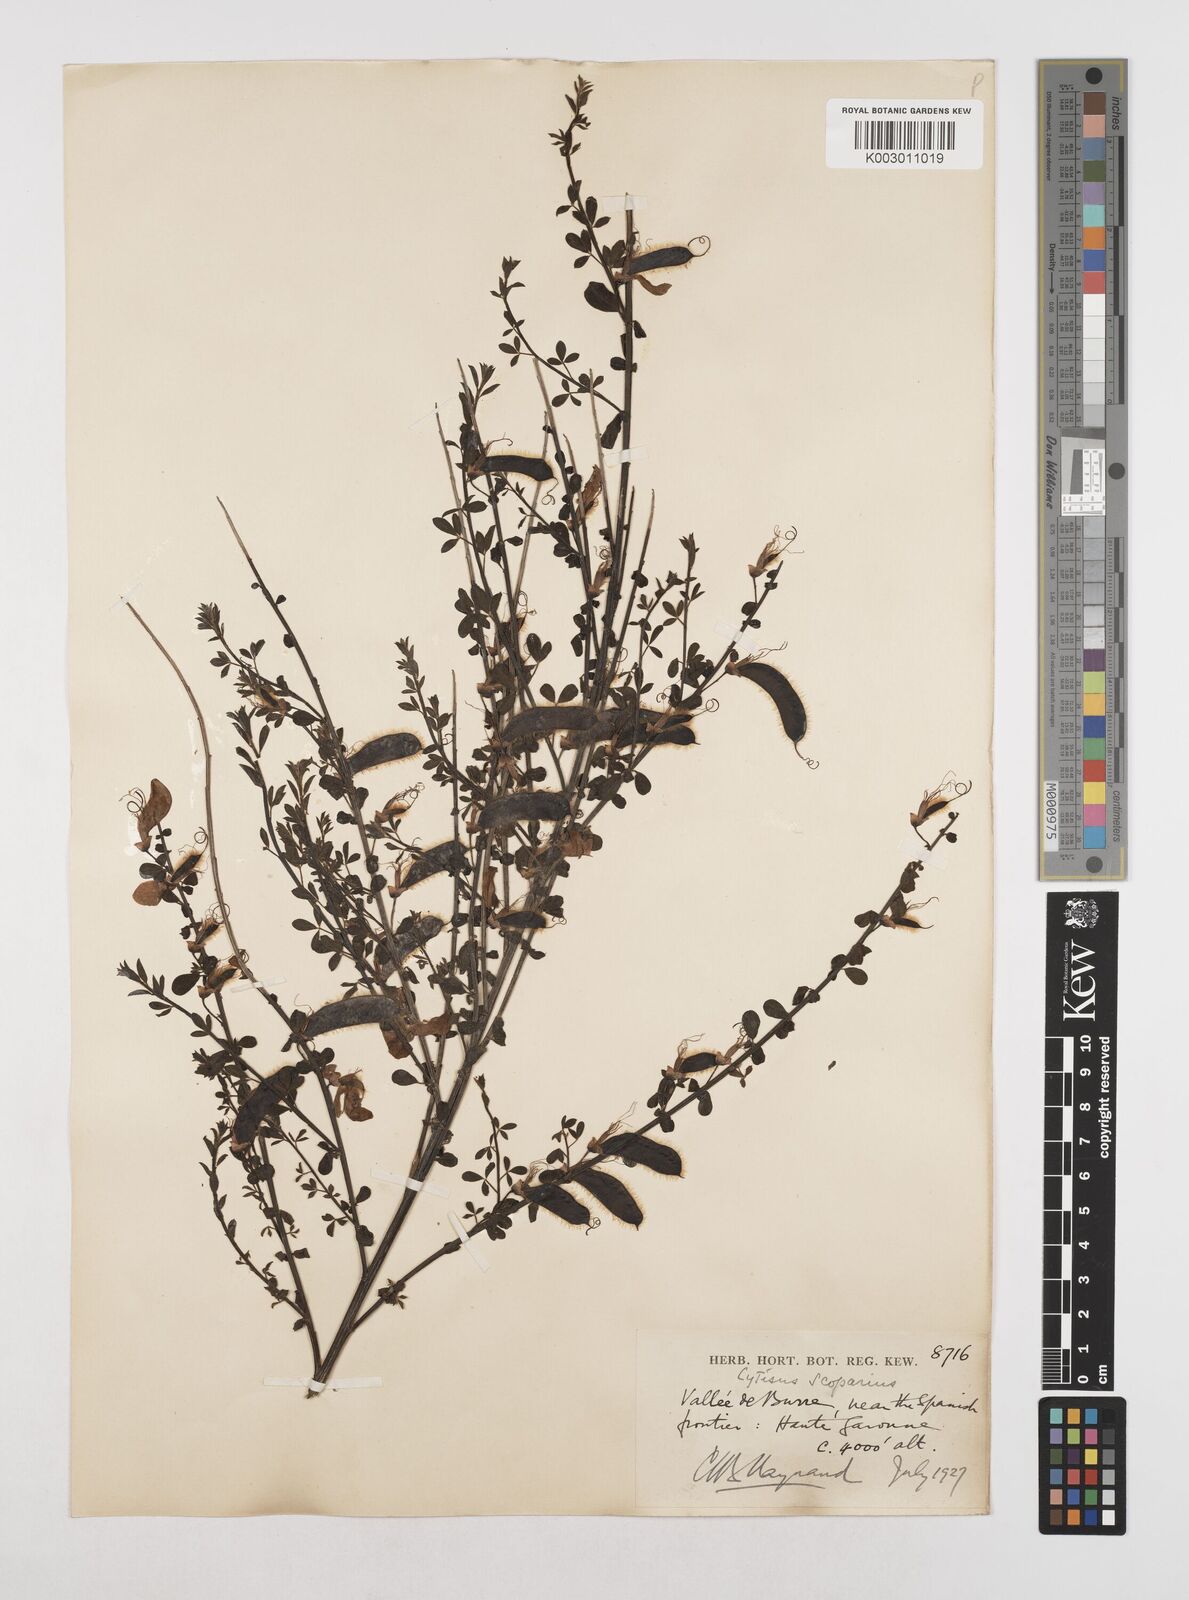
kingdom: Plantae
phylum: Tracheophyta
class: Magnoliopsida
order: Fabales
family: Fabaceae
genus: Cytisus
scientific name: Cytisus scoparius
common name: Scotch broom
